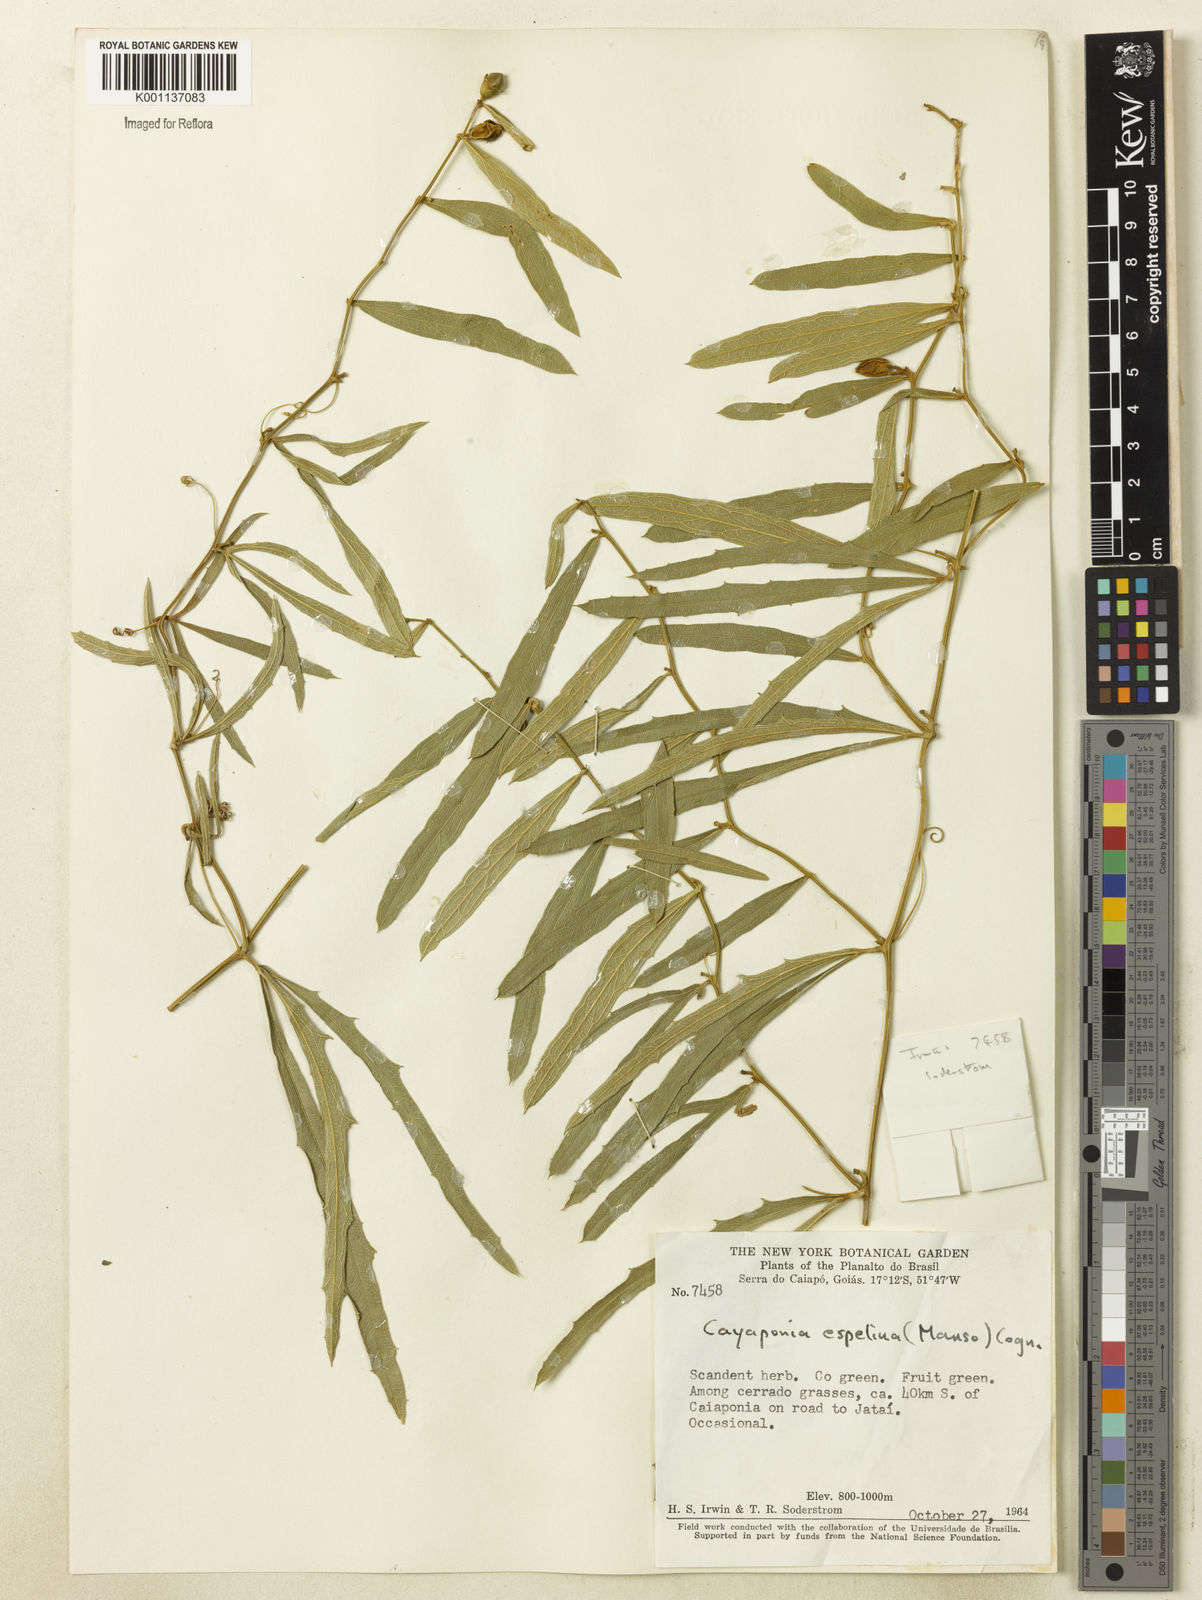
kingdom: Plantae
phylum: Tracheophyta
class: Magnoliopsida
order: Cucurbitales
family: Cucurbitaceae
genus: Cayaponia
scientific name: Cayaponia espelina
